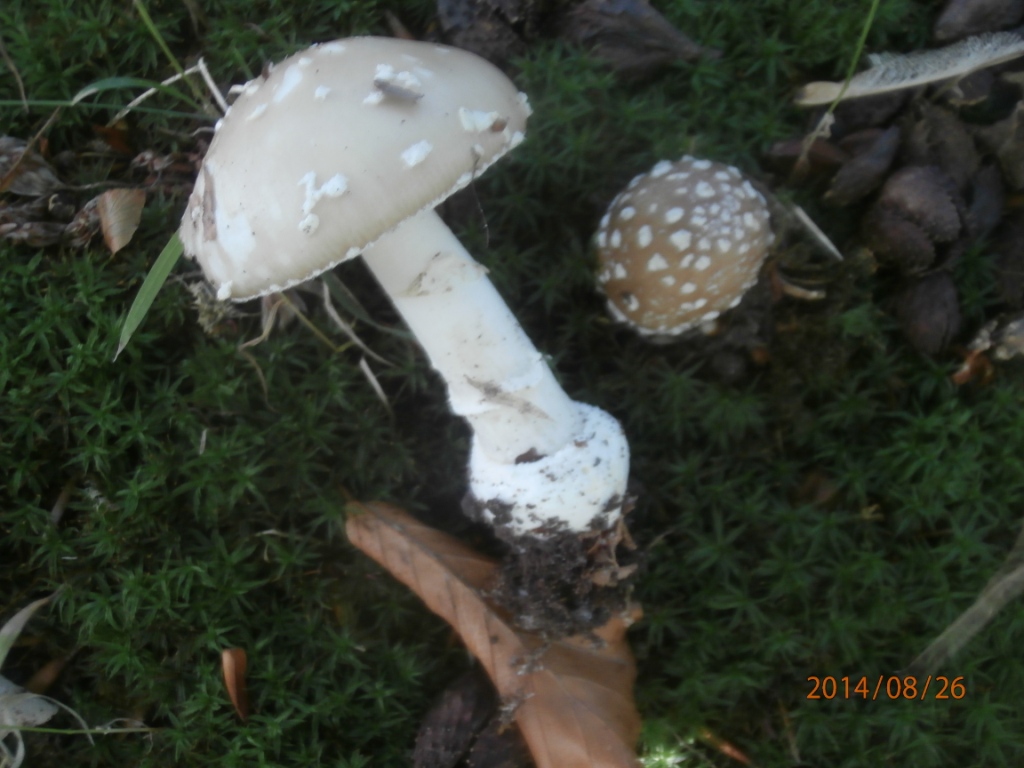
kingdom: Fungi
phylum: Basidiomycota
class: Agaricomycetes
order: Agaricales
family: Amanitaceae
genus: Amanita
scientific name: Amanita pantherina
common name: panter-fluesvamp
